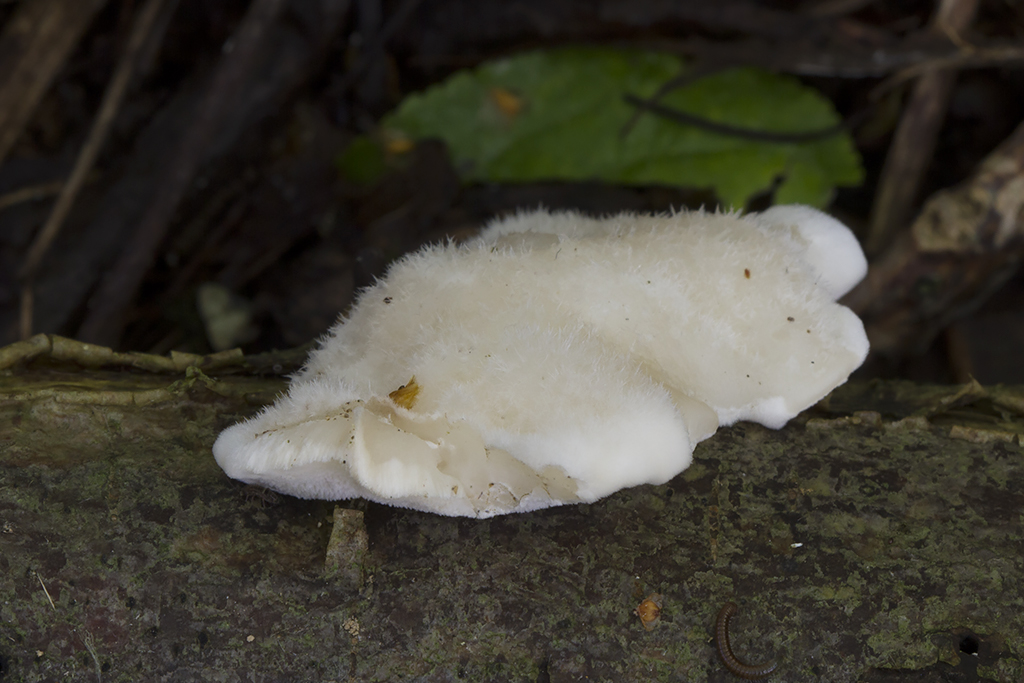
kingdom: Fungi
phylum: Basidiomycota
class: Agaricomycetes
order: Polyporales
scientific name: Polyporales
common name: poresvampordenen
